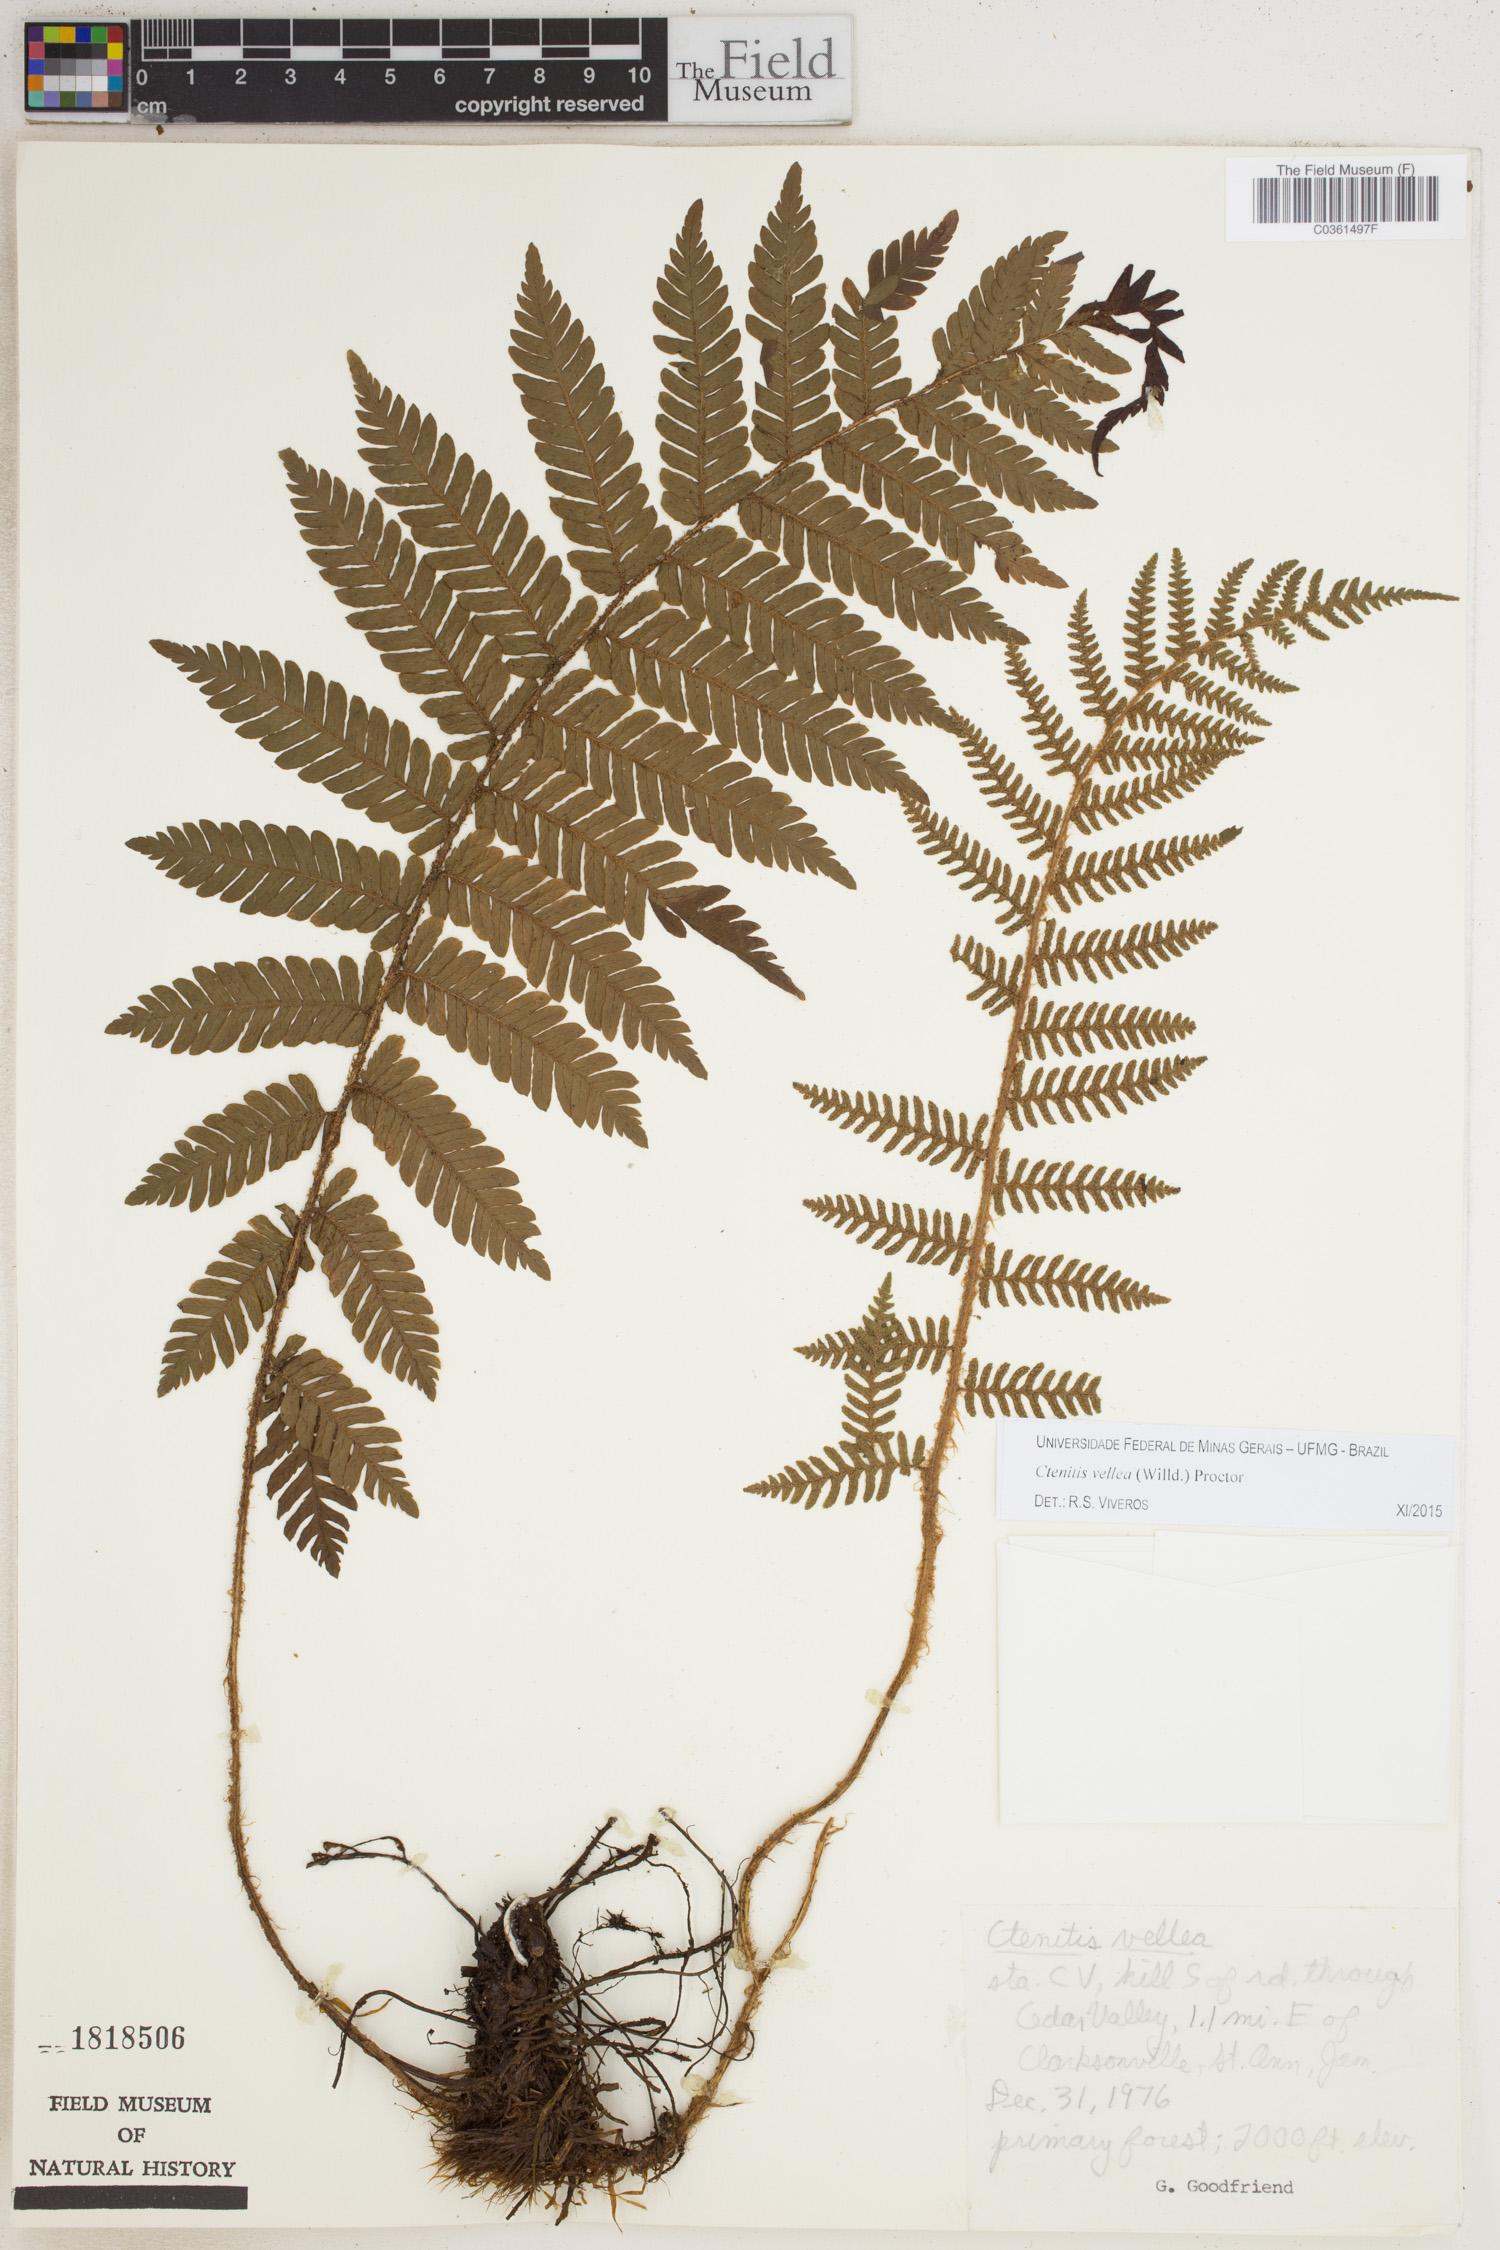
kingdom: Plantae
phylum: Tracheophyta
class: Polypodiopsida
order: Polypodiales
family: Dryopteridaceae
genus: Ctenitis
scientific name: Ctenitis vellea
